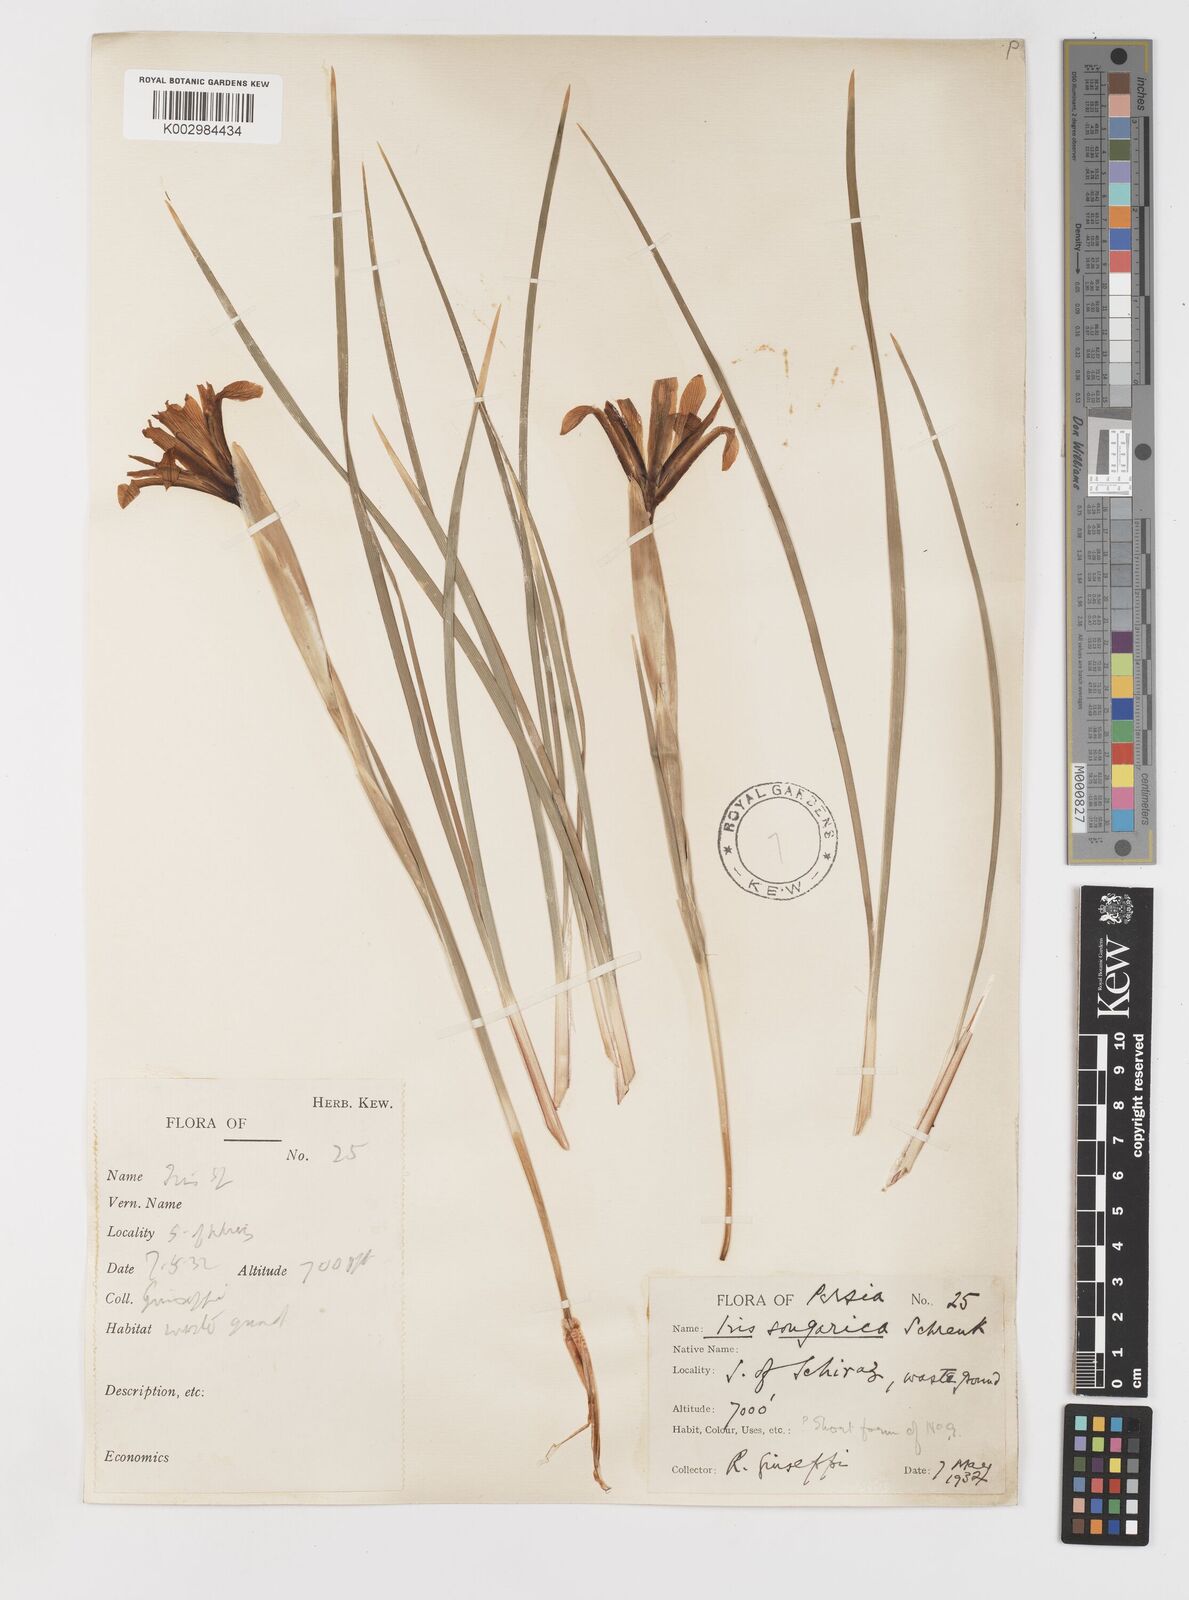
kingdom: Plantae
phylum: Tracheophyta
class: Liliopsida
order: Asparagales
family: Iridaceae
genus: Iris
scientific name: Iris songarica
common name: Songar iris
